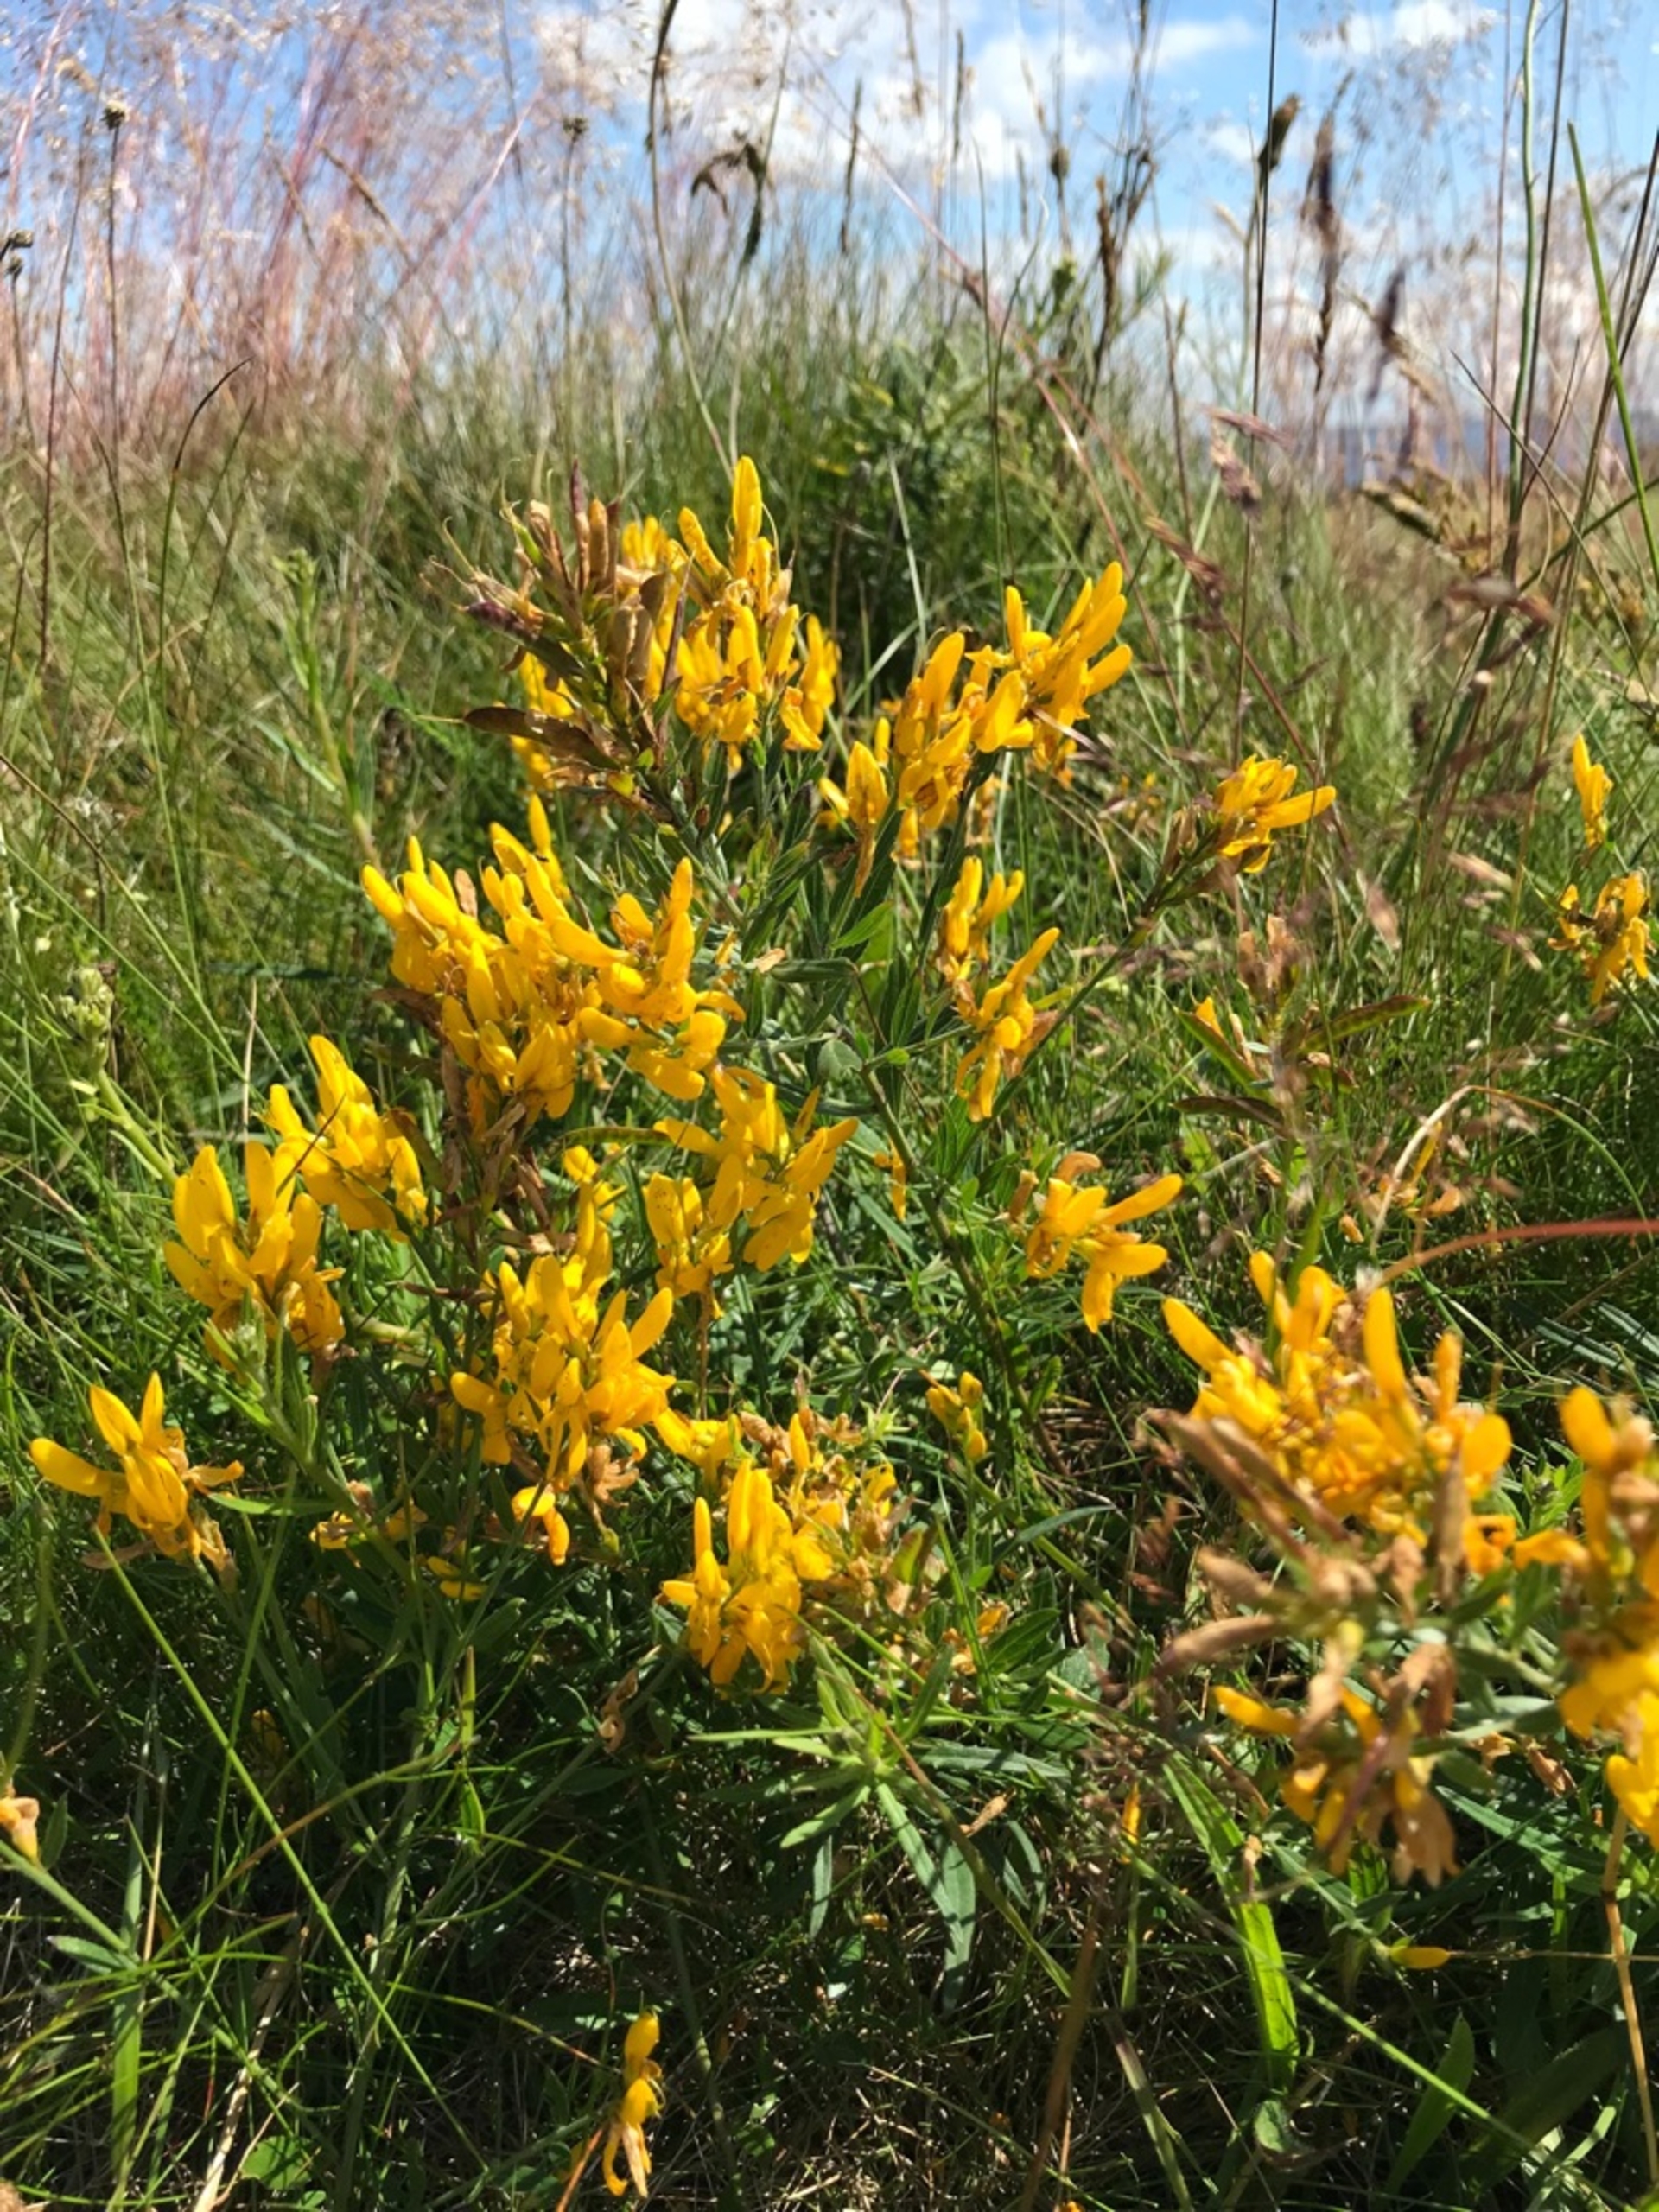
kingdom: Plantae
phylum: Tracheophyta
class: Magnoliopsida
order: Fabales
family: Fabaceae
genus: Genista
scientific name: Genista tinctoria
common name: Farve-visse
